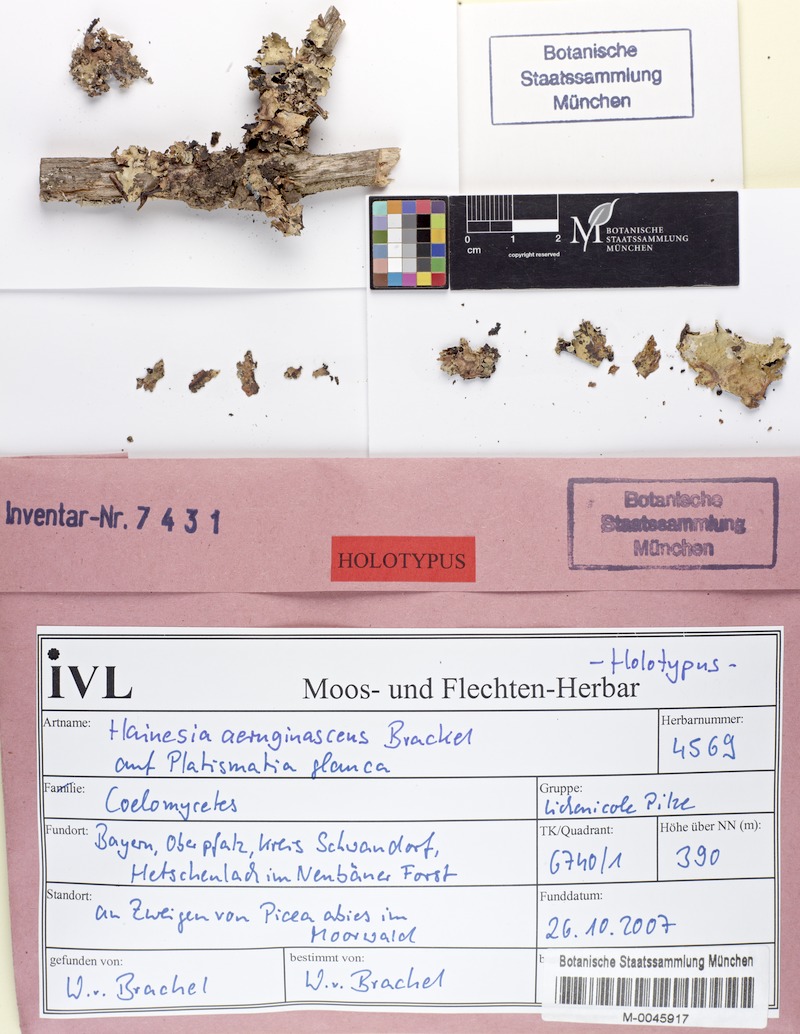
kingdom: Fungi
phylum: Ascomycota
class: Lecanoromycetes
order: Lecanorales
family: Parmeliaceae
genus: Platismatia
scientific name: Platismatia glauca
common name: Varied rag lichen
